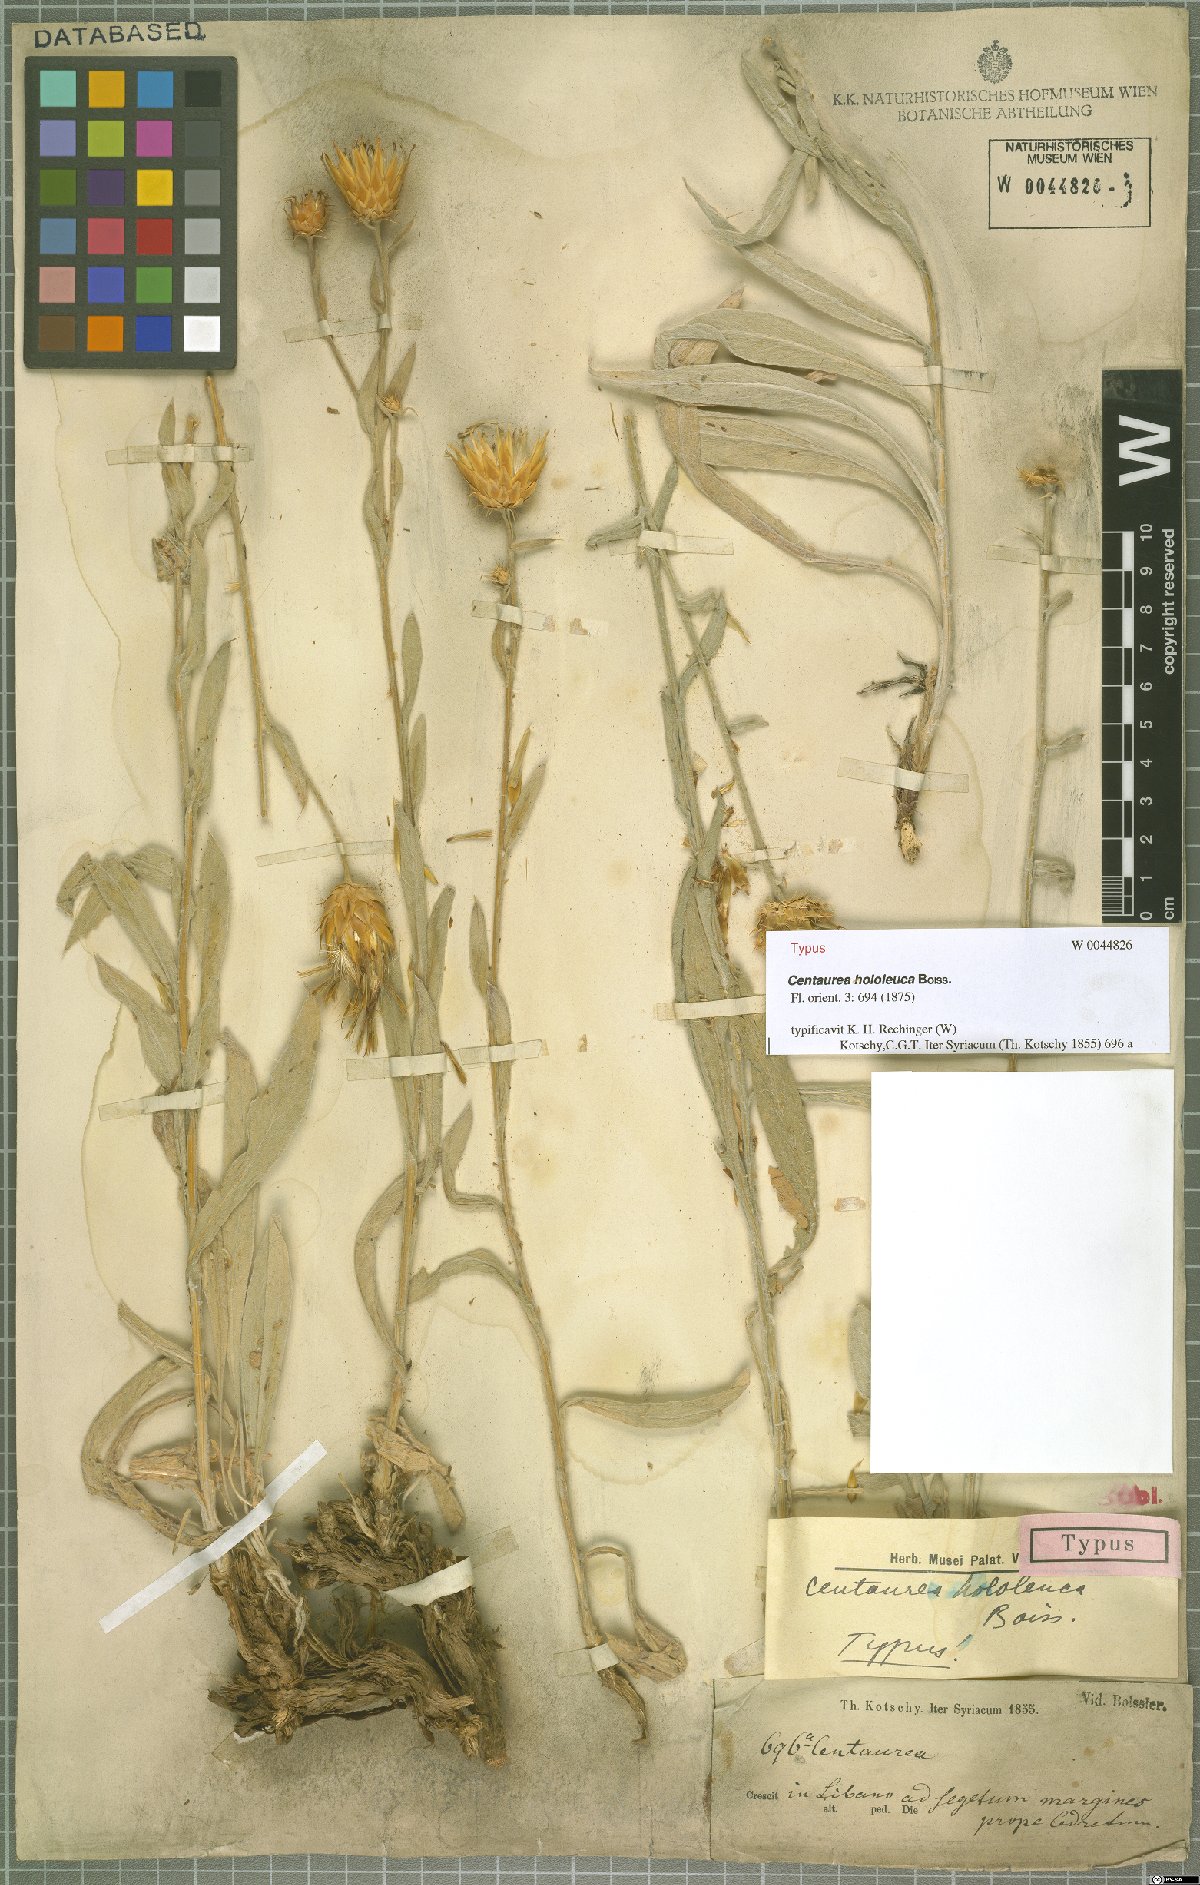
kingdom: Plantae
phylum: Tracheophyta
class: Magnoliopsida
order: Asterales
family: Asteraceae
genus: Centaurea
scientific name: Centaurea hololeuca
